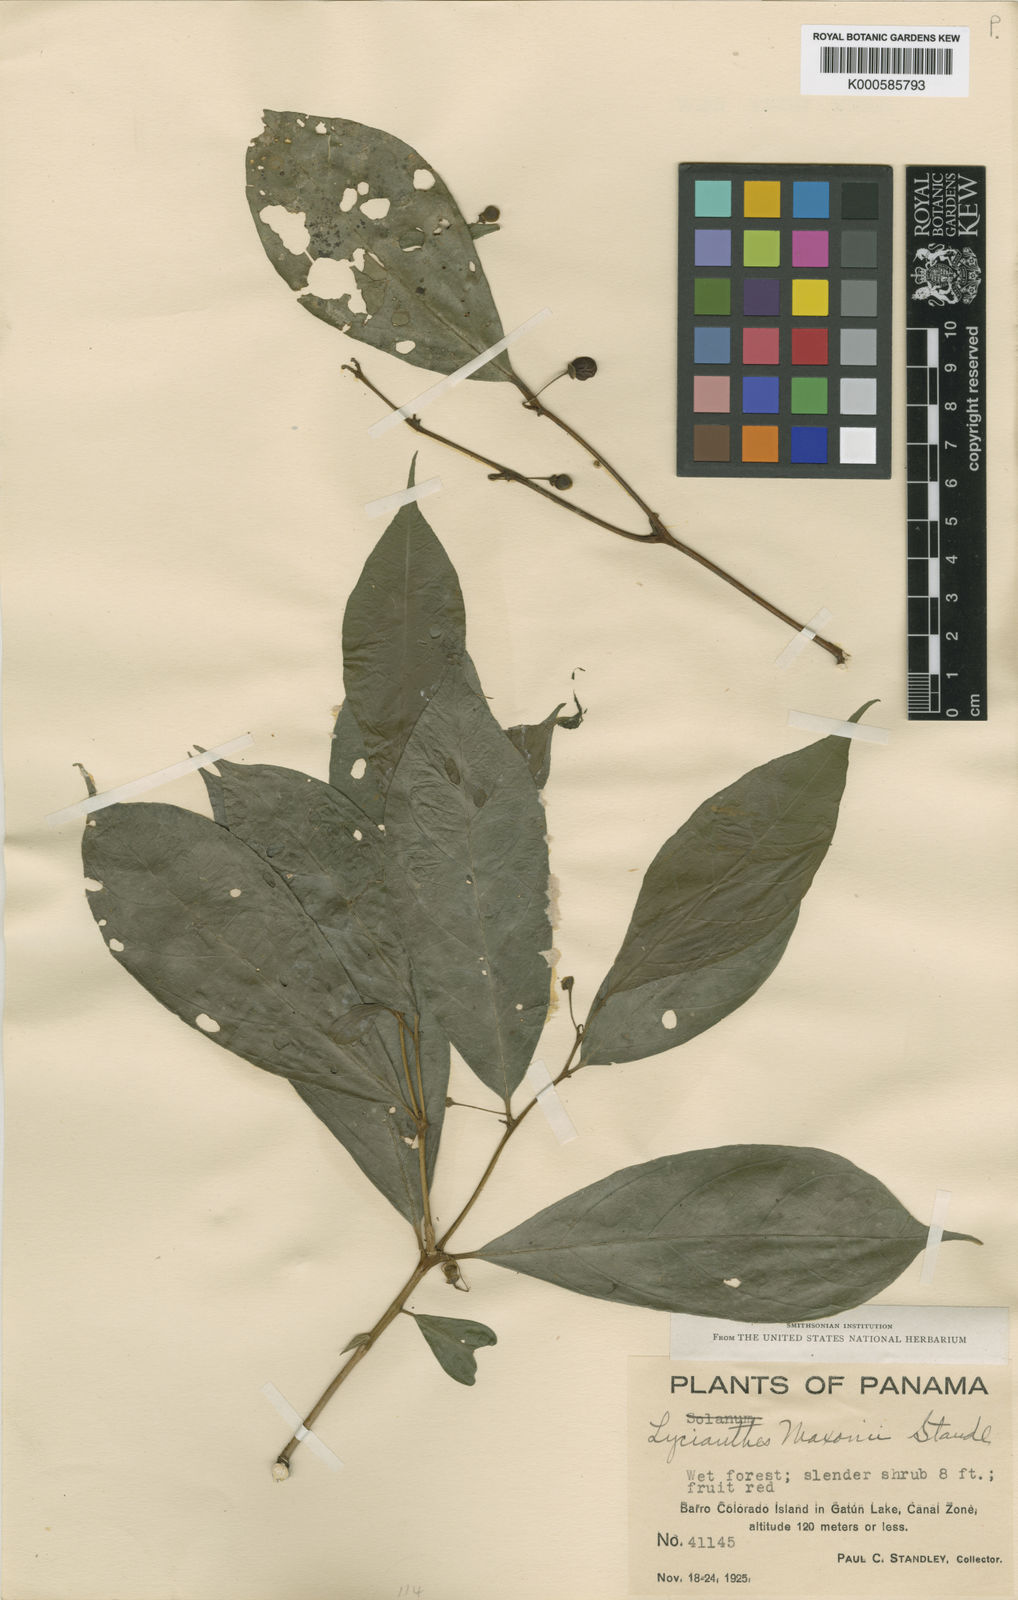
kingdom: Plantae
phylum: Tracheophyta
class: Magnoliopsida
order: Solanales
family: Solanaceae
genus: Lycianthes
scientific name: Lycianthes maxonii
